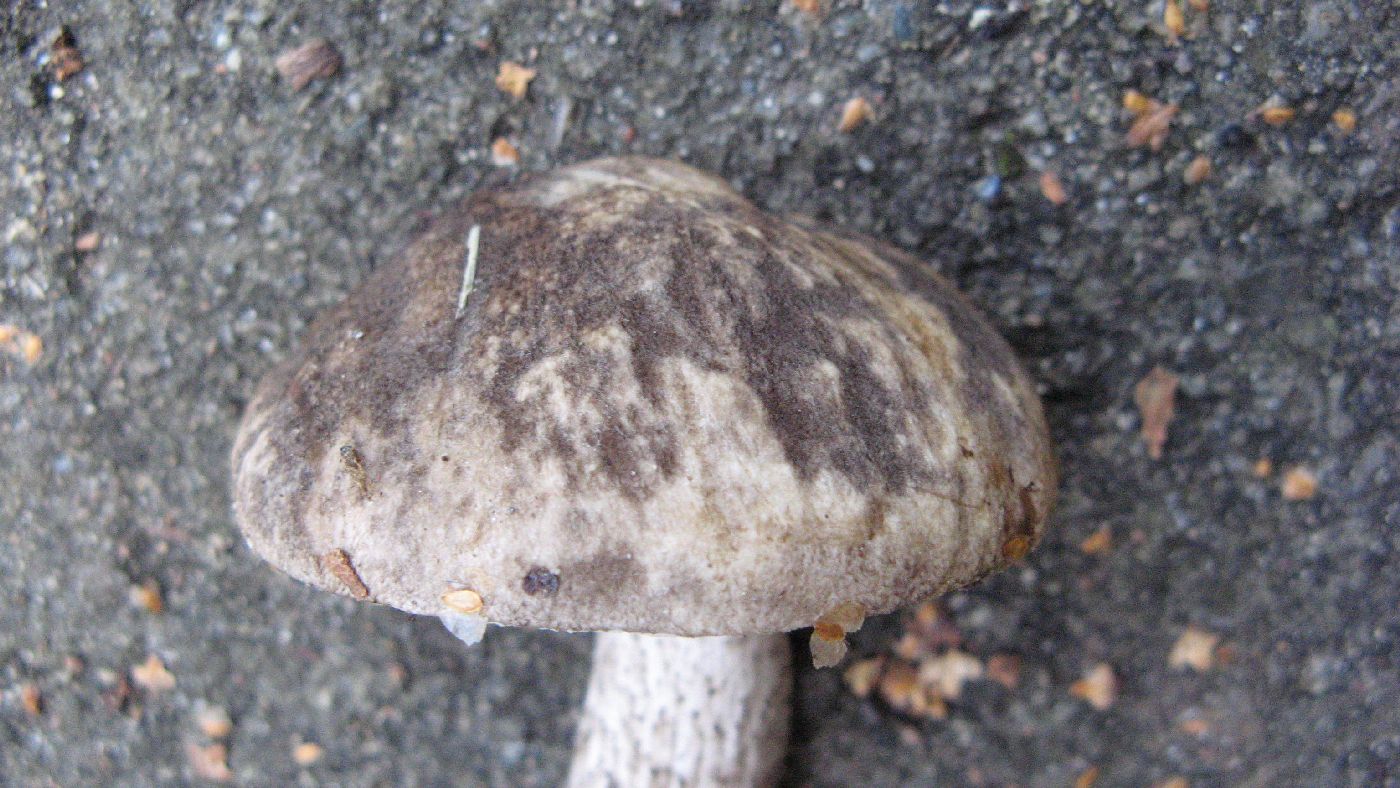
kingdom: Fungi
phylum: Basidiomycota
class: Agaricomycetes
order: Boletales
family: Boletaceae
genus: Leccinum
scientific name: Leccinum variicolor
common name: flammet skælrørhat
